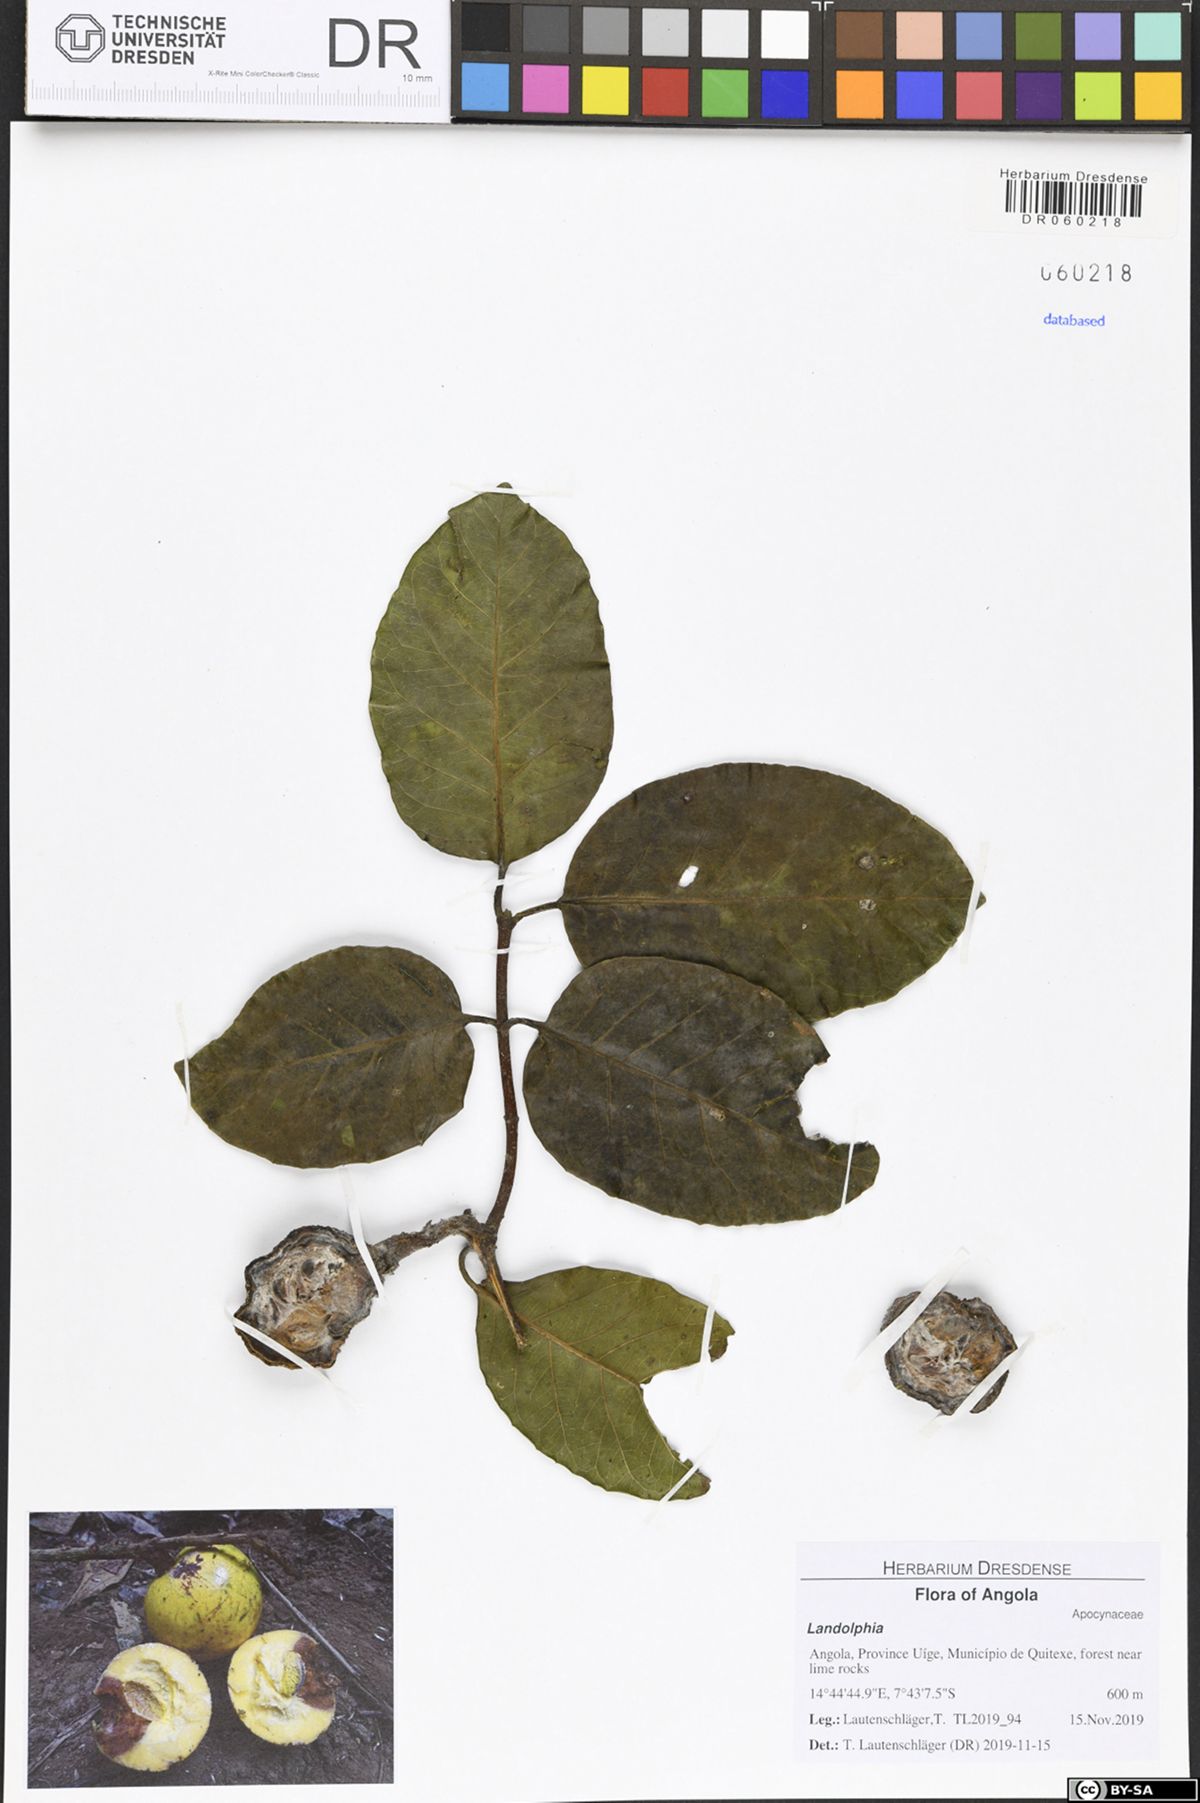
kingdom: Plantae
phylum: Tracheophyta
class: Magnoliopsida
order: Gentianales
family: Apocynaceae
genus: Landolphia
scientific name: Landolphia owariensis
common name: White-ball-rubber
